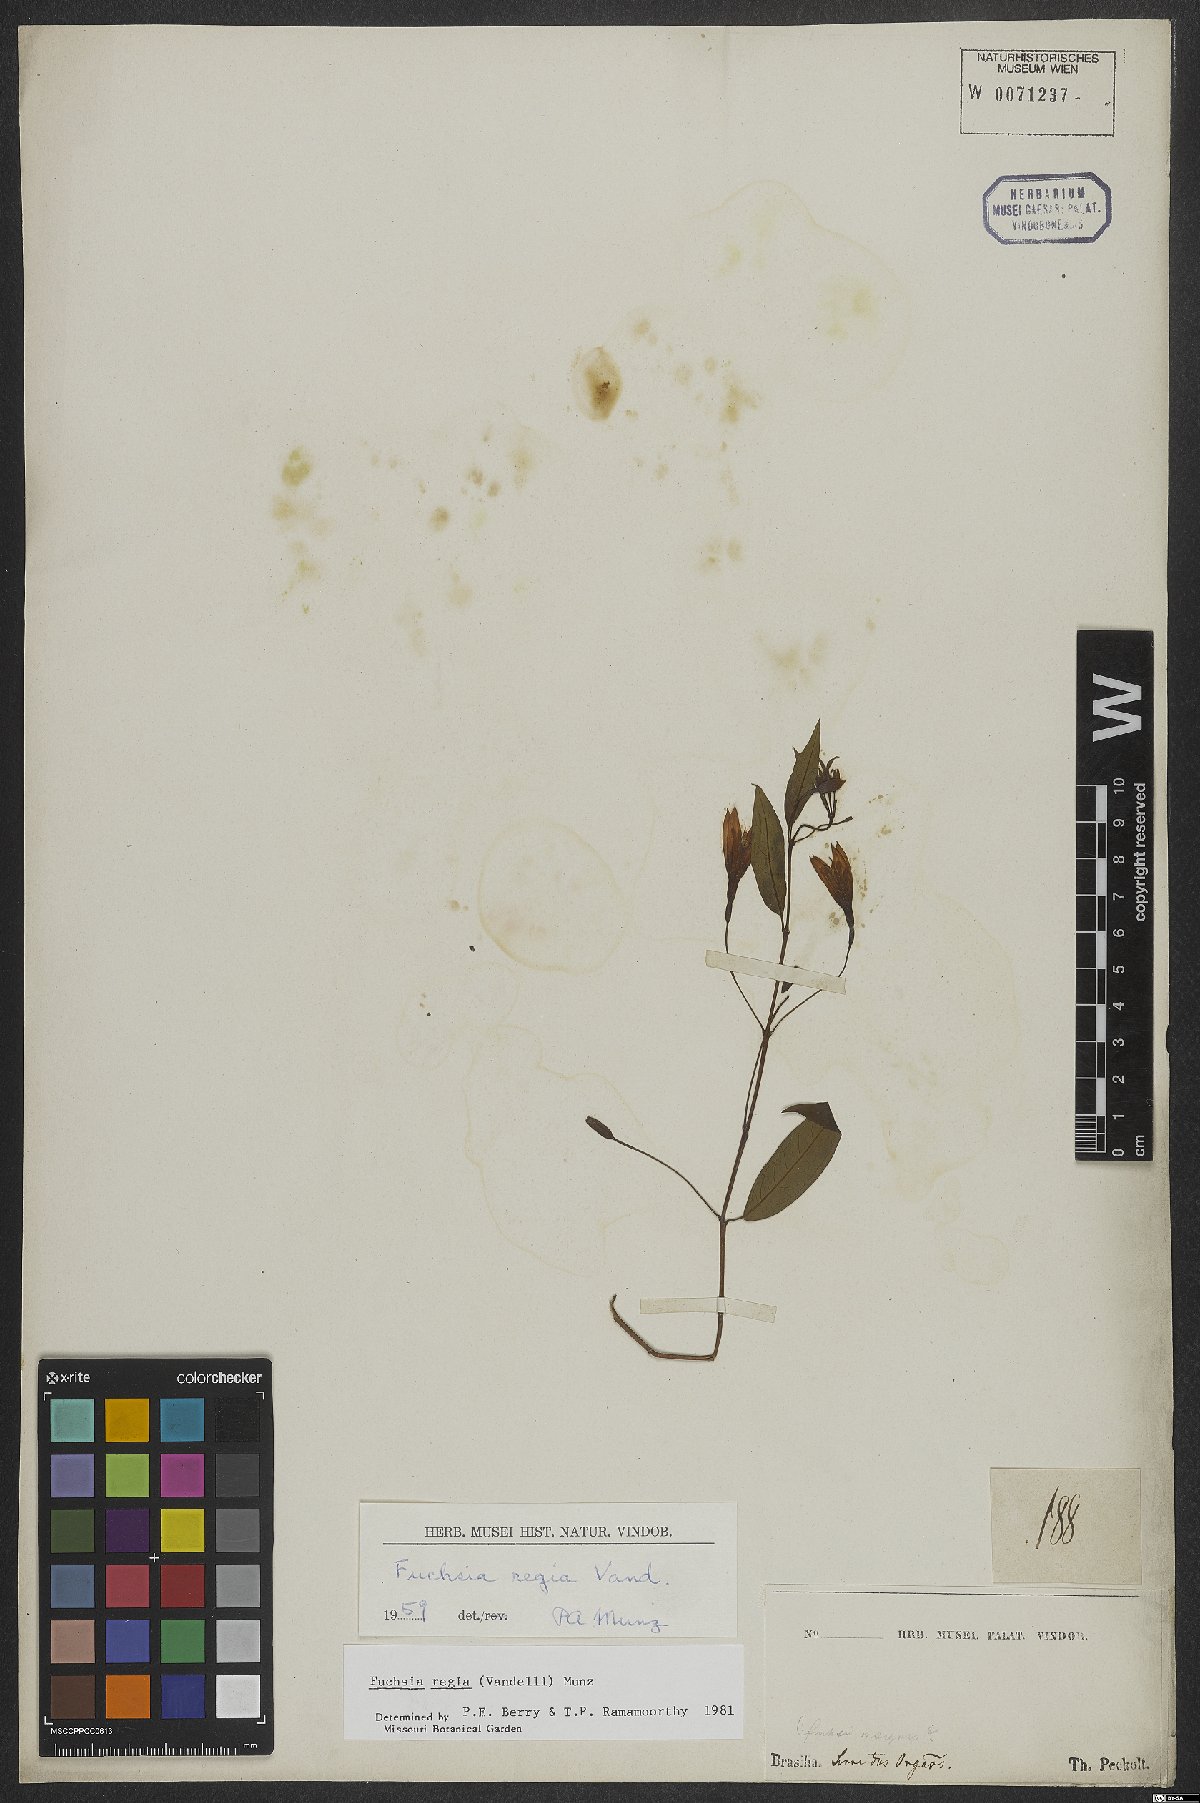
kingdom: Plantae
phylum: Tracheophyta
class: Magnoliopsida
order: Myrtales
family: Onagraceae
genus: Fuchsia
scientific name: Fuchsia regia
